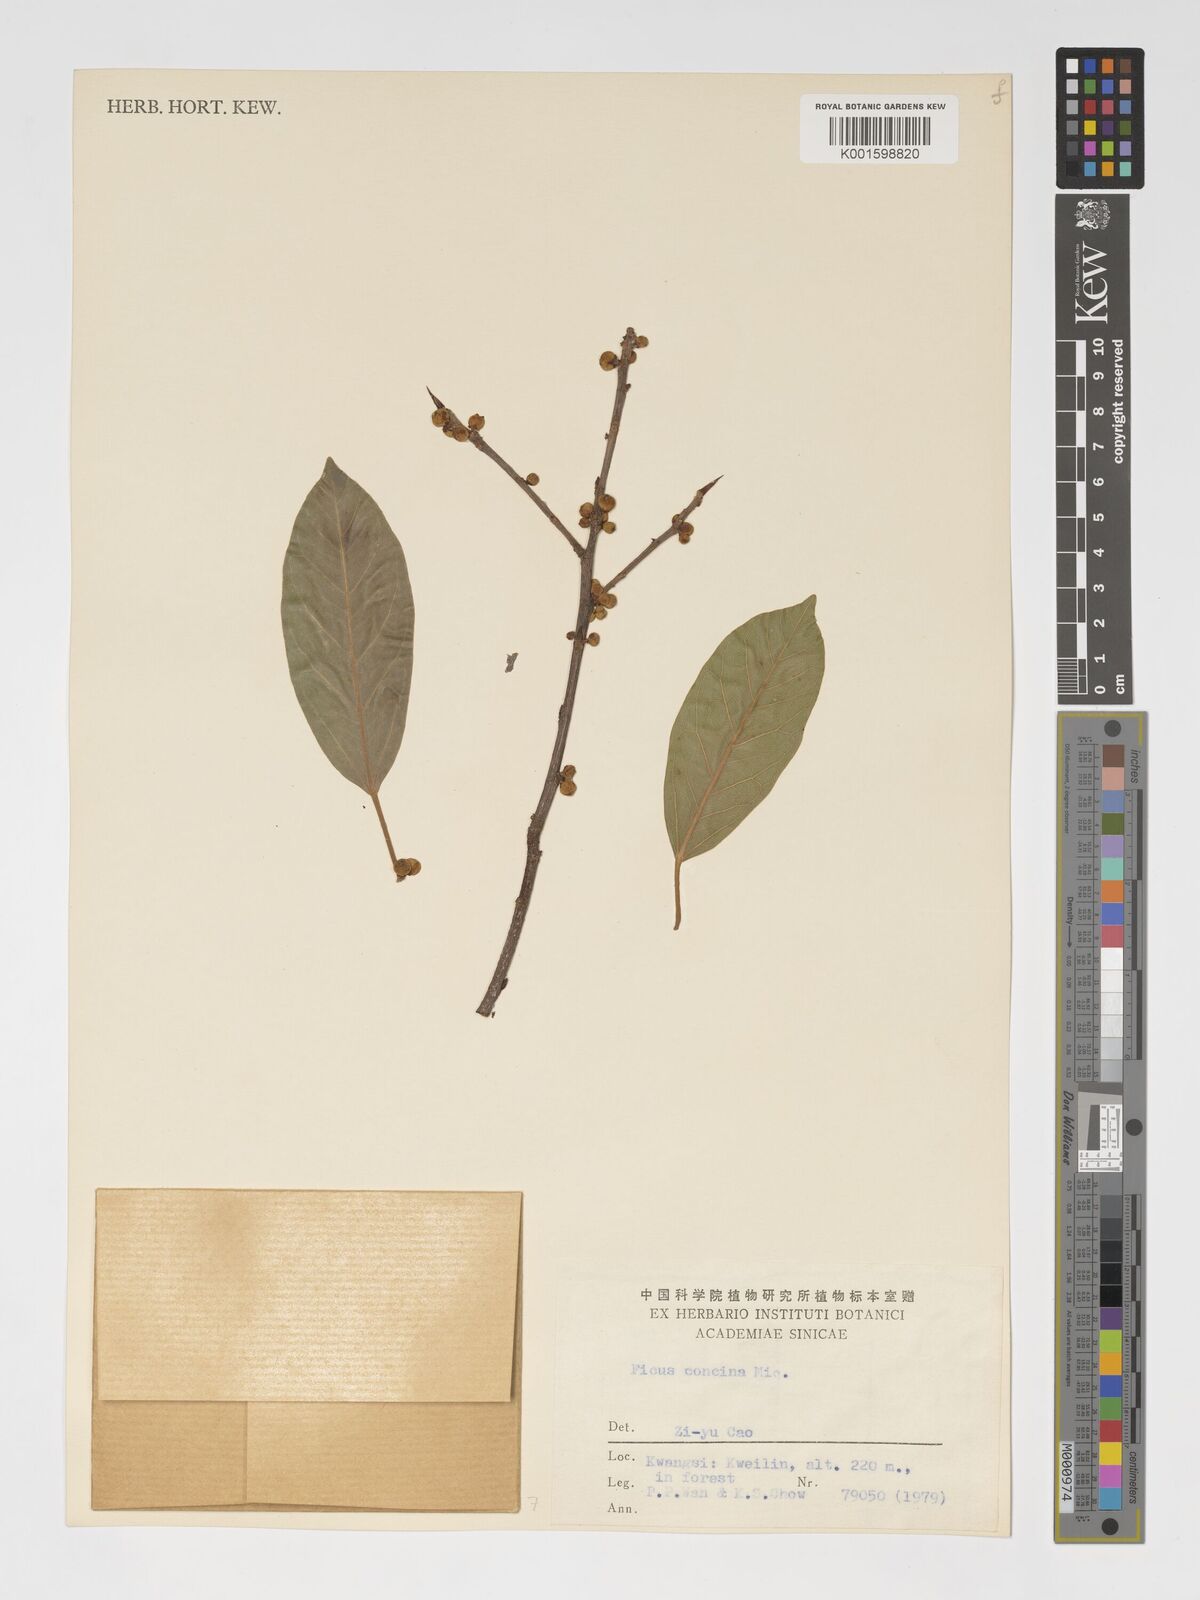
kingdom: Plantae
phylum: Tracheophyta
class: Magnoliopsida
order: Rosales
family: Moraceae
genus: Ficus
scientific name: Ficus concinna
